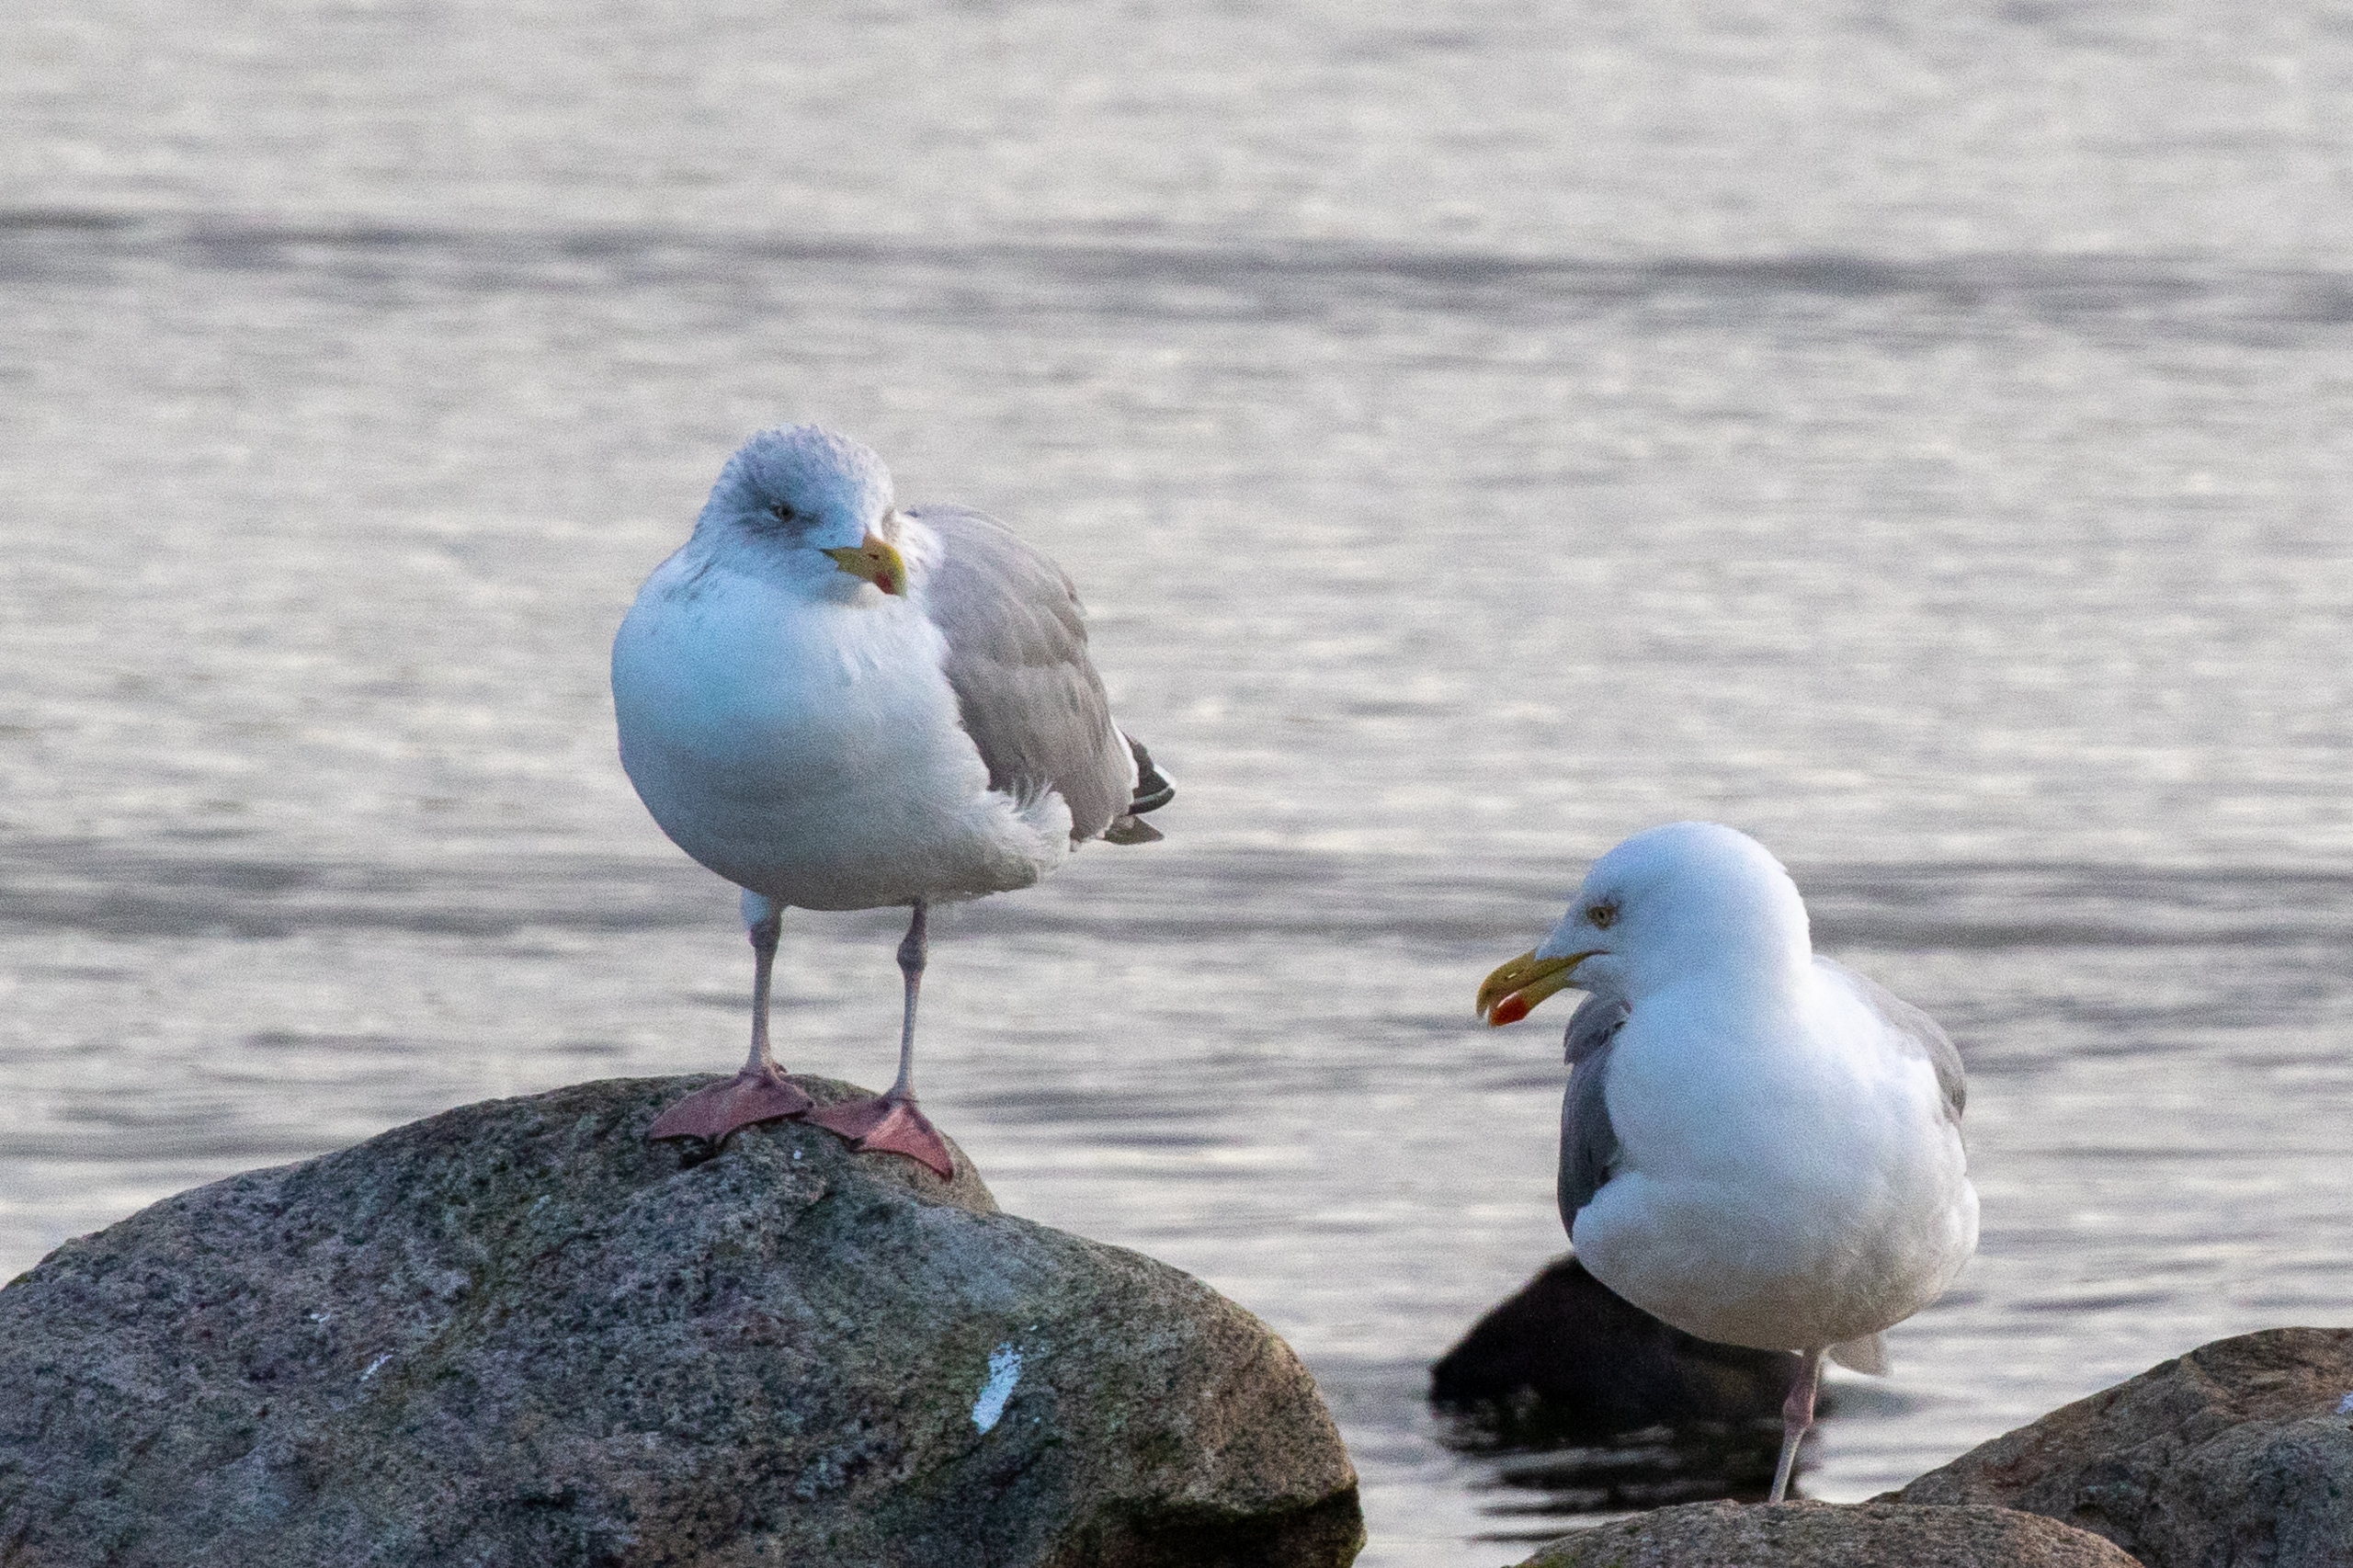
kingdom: Animalia
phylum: Chordata
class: Aves
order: Charadriiformes
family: Laridae
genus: Larus
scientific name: Larus argentatus
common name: Sølvmåge
